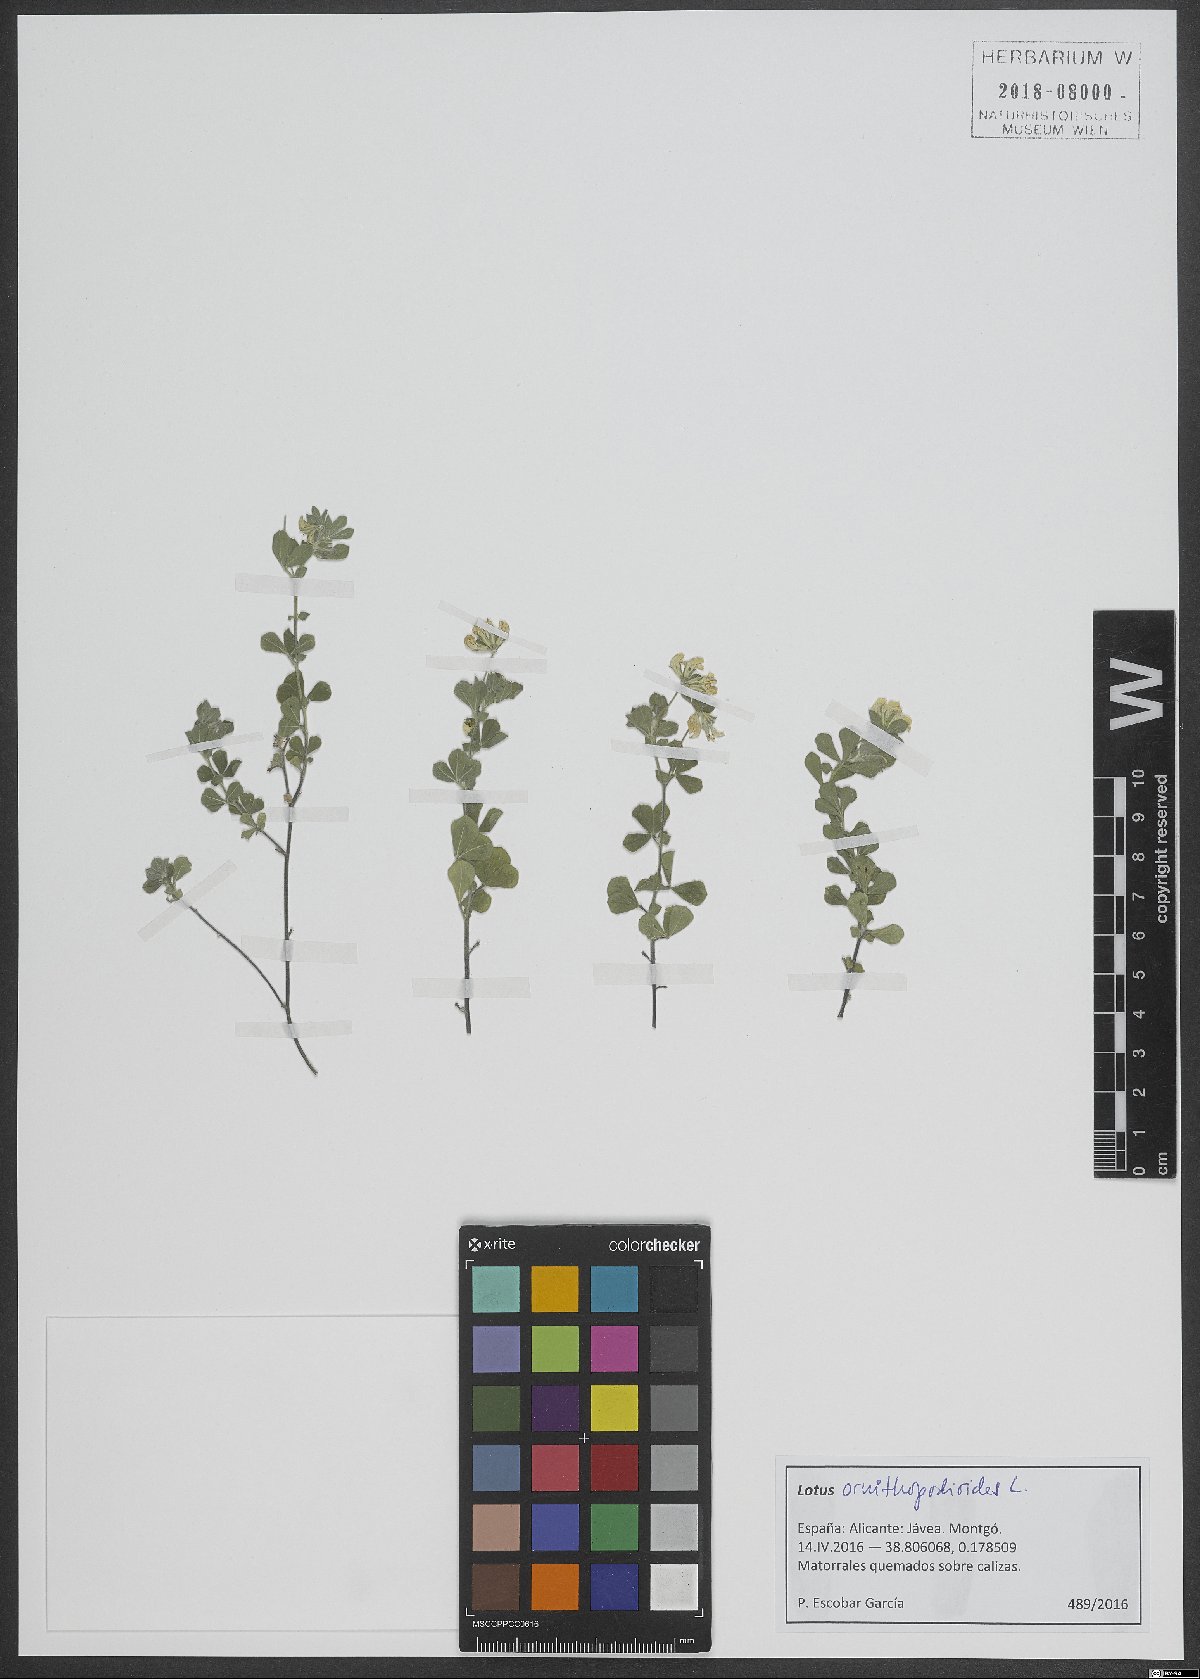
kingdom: Plantae
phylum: Tracheophyta
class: Magnoliopsida
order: Fabales
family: Fabaceae
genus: Lotus
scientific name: Lotus ornithopodioides
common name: Southern bird's-foot trefoil
